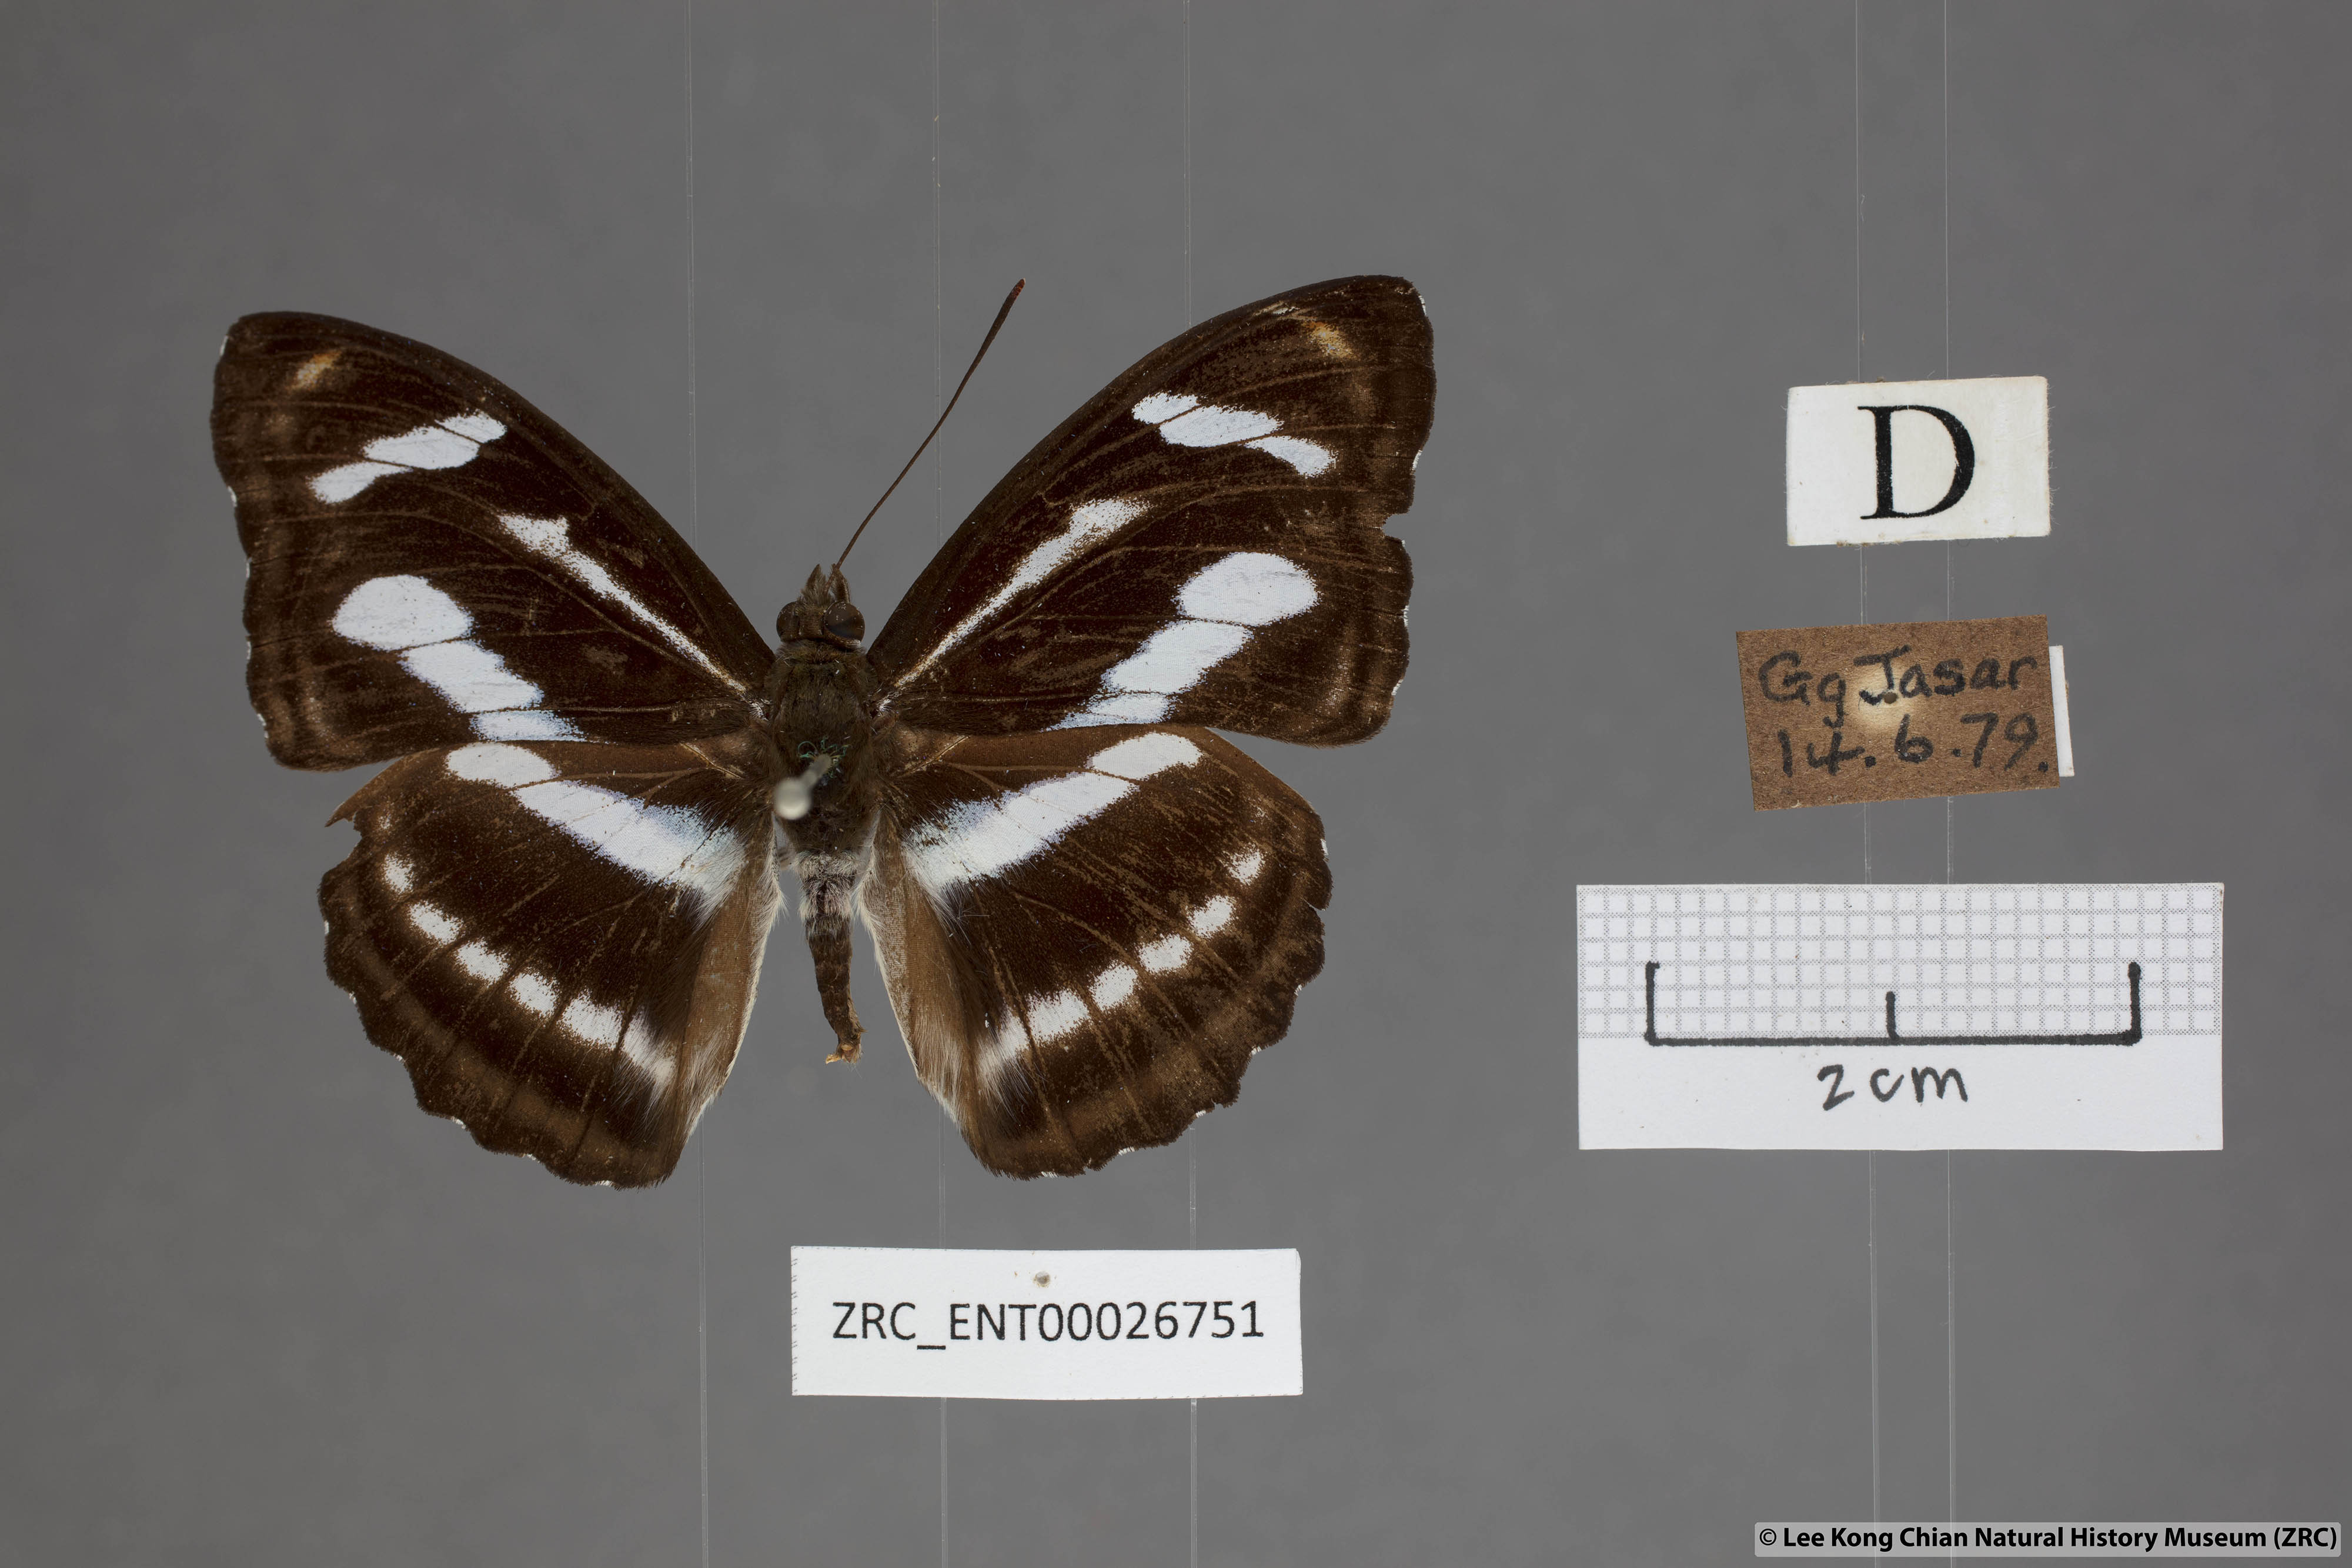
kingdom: Animalia
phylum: Arthropoda
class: Insecta
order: Lepidoptera
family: Nymphalidae
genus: Pantoporia
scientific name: Pantoporia cama
